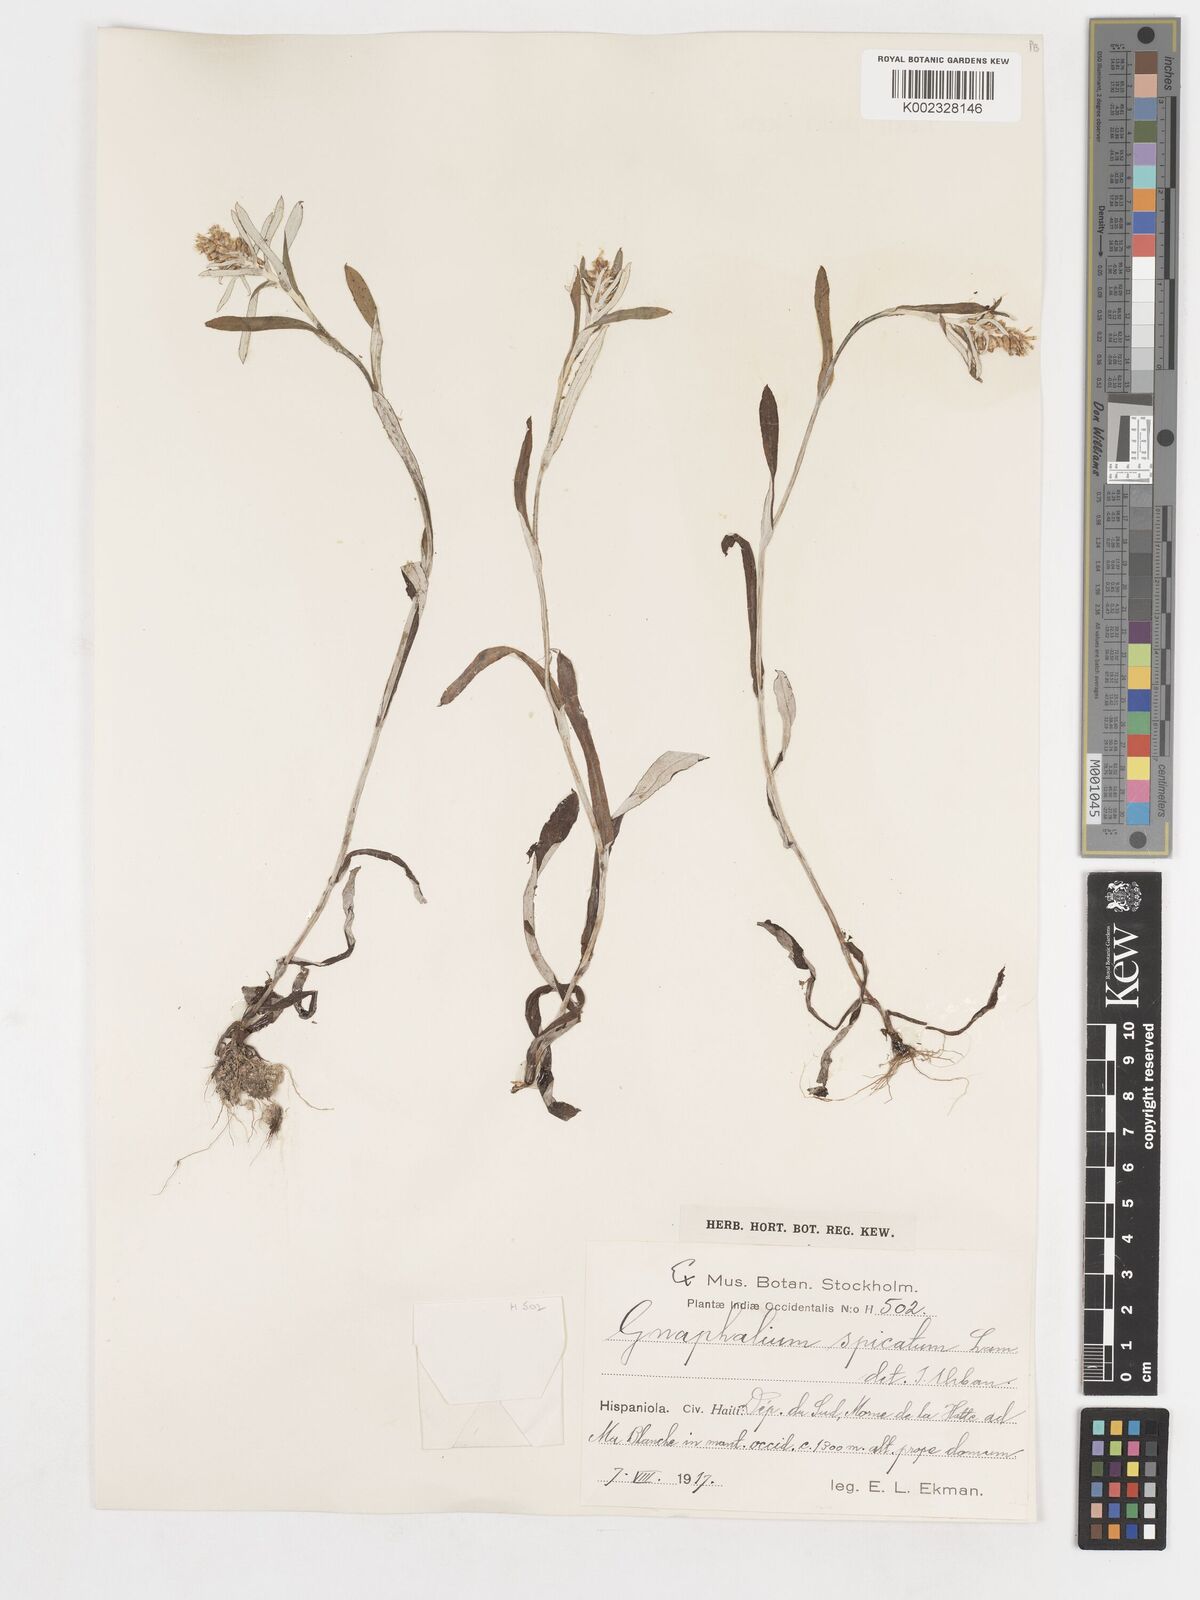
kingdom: Plantae
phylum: Tracheophyta
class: Magnoliopsida
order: Asterales
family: Asteraceae
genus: Gamochaeta
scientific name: Gamochaeta
